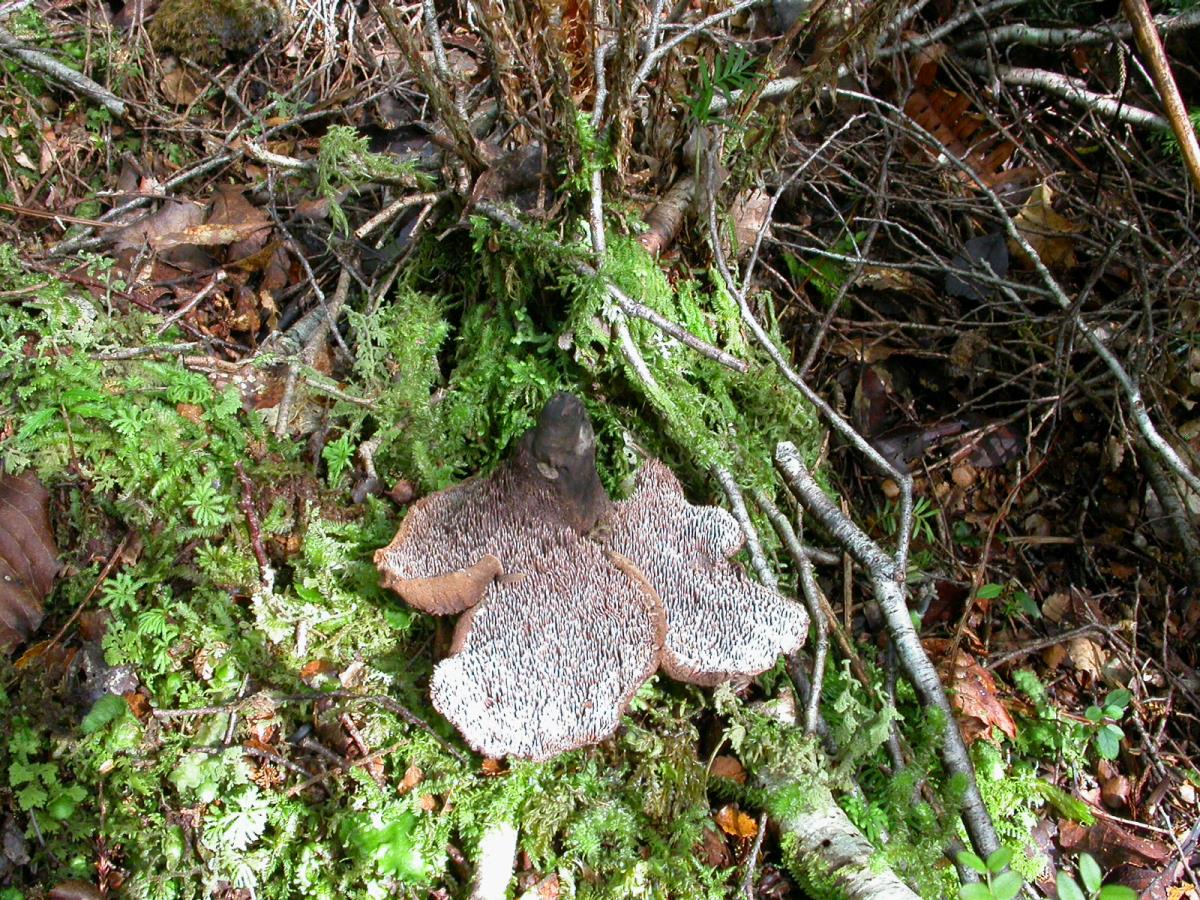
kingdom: Fungi
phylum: Basidiomycota
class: Agaricomycetes
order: Thelephorales
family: Bankeraceae
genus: Sarcodon
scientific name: Sarcodon carbonarius
